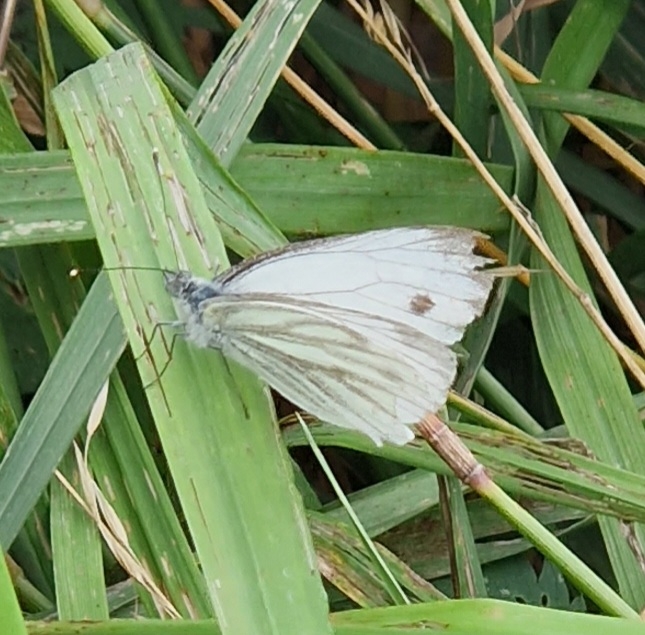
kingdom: Animalia
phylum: Arthropoda
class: Insecta
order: Lepidoptera
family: Pieridae
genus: Pieris
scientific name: Pieris napi
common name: Grønåret kålsommerfugl
